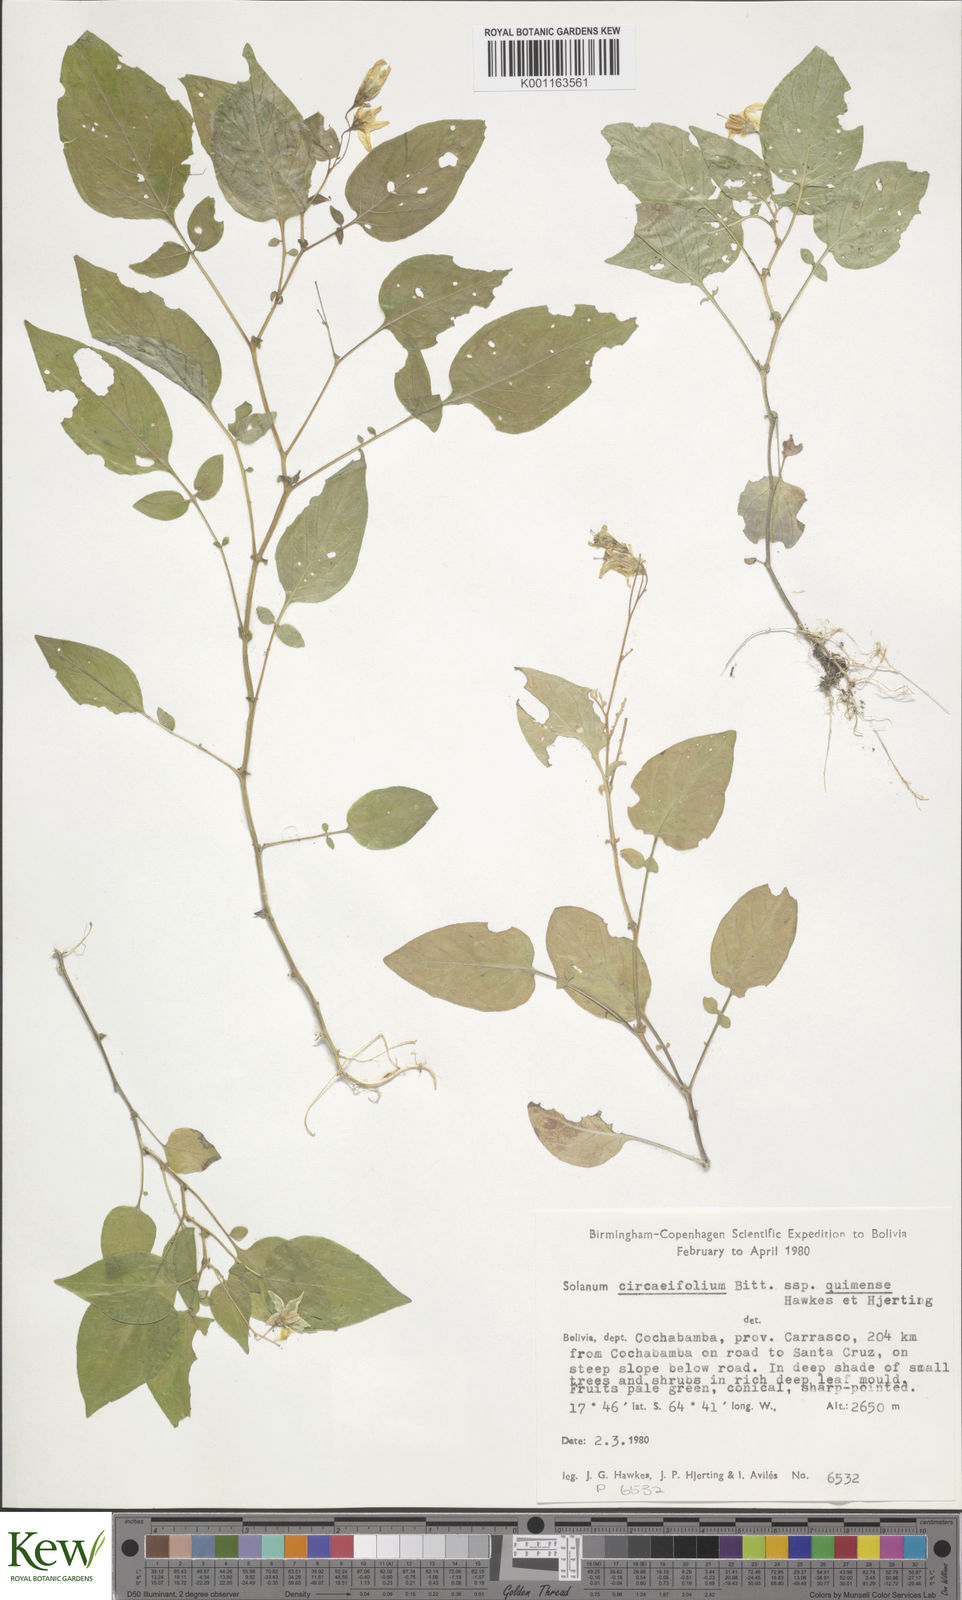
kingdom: Plantae
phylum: Tracheophyta
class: Magnoliopsida
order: Solanales
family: Solanaceae
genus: Solanum
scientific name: Solanum stipuloideum
